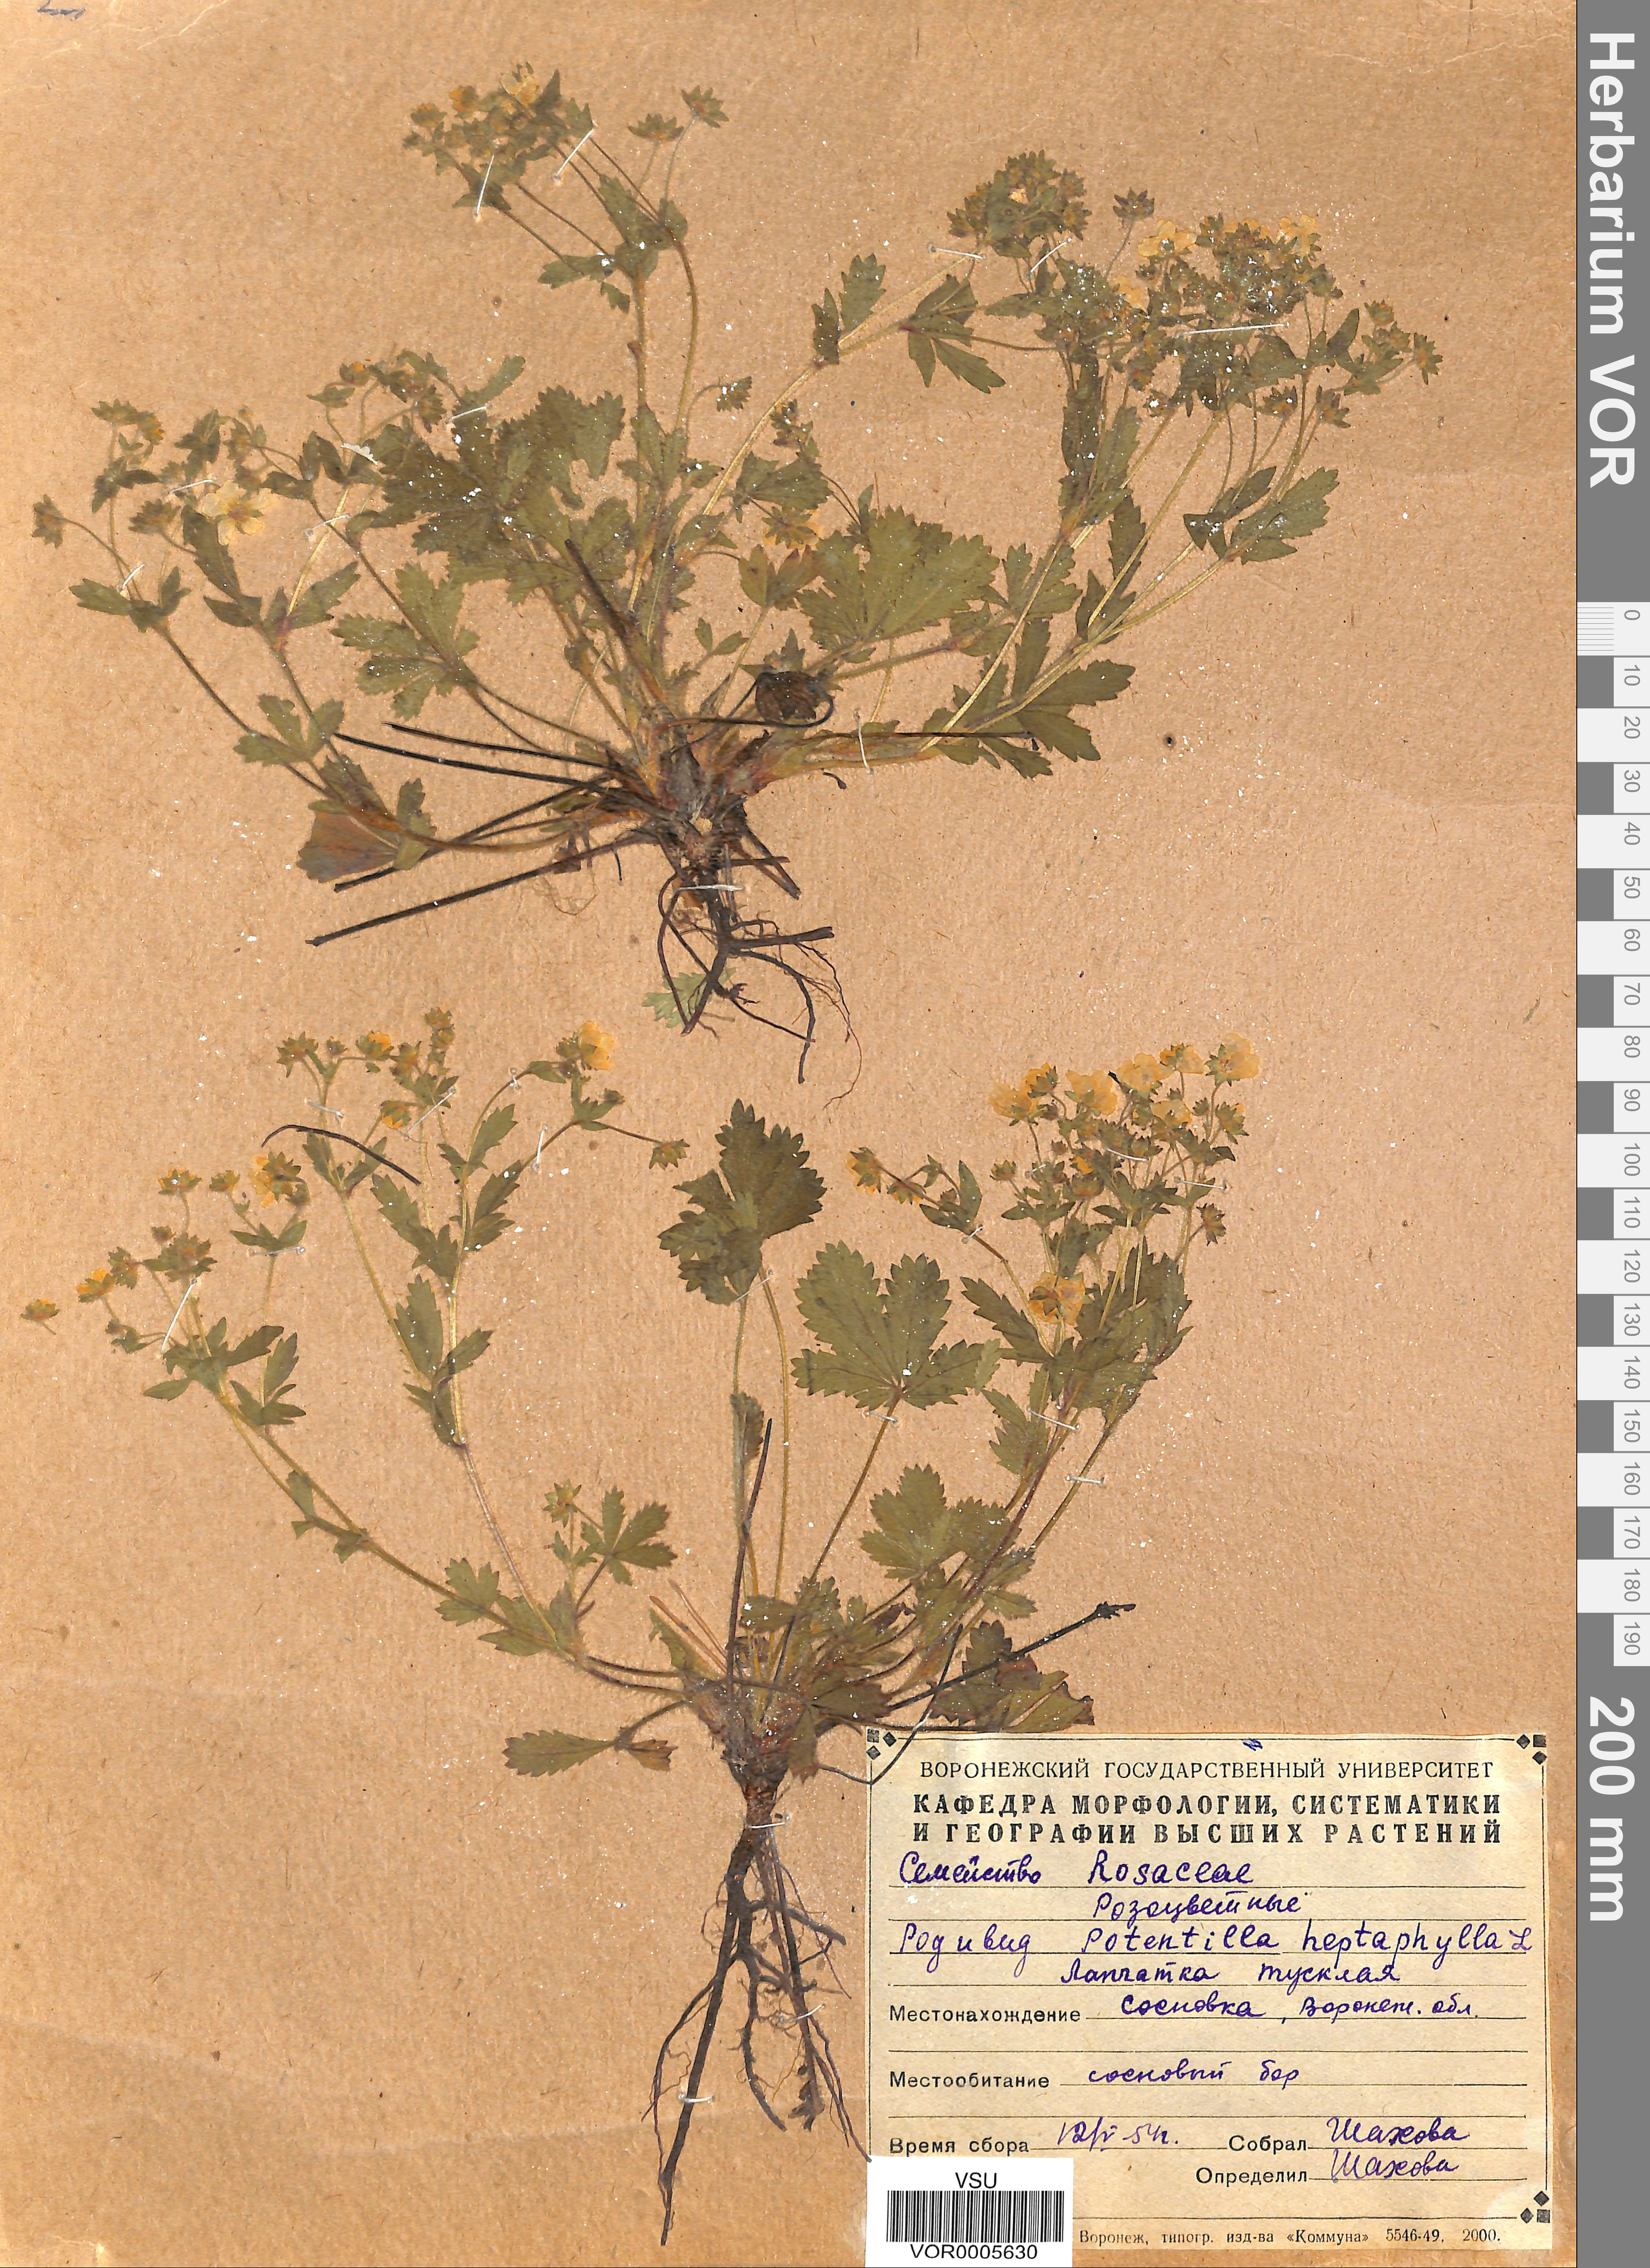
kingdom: Plantae
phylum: Tracheophyta
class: Magnoliopsida
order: Rosales
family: Rosaceae
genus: Potentilla
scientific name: Potentilla heptaphylla
